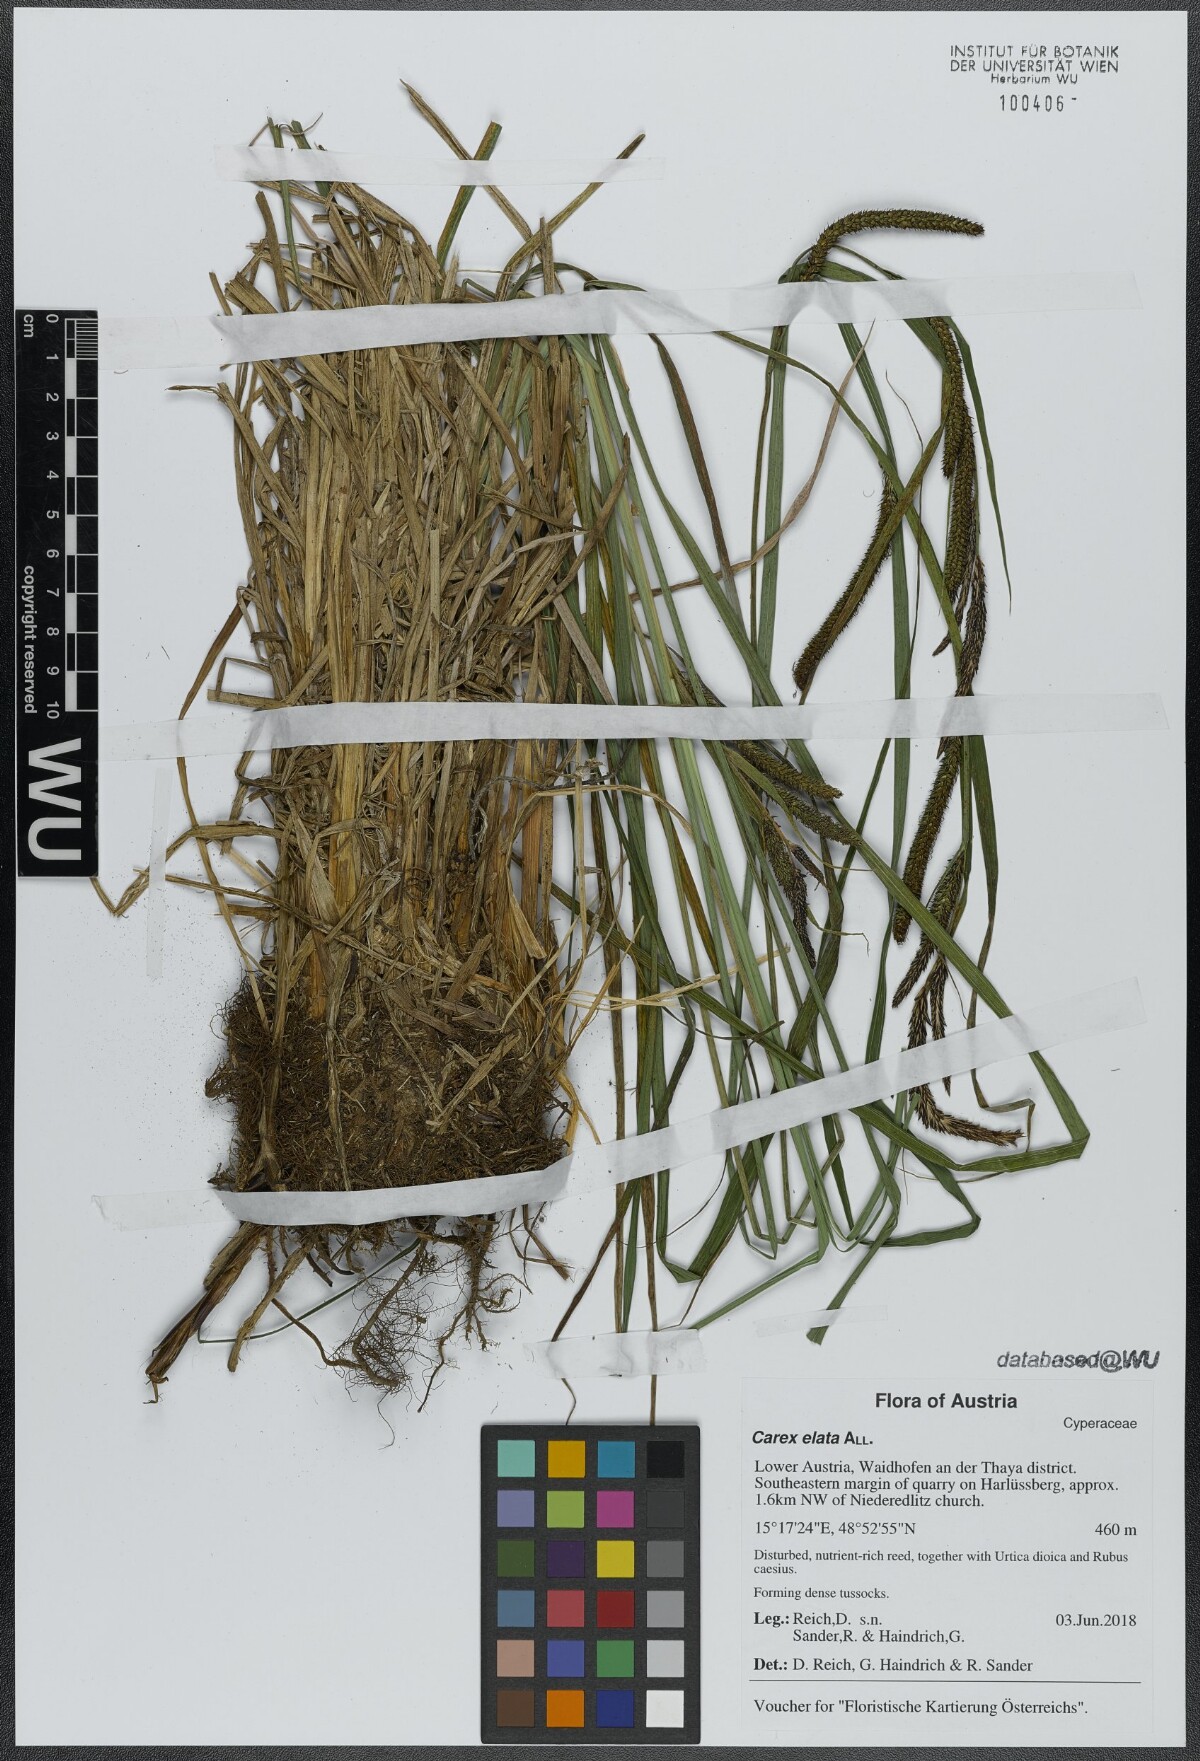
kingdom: Plantae
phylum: Tracheophyta
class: Liliopsida
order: Poales
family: Cyperaceae
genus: Carex
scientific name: Carex elata
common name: Tufted sedge
